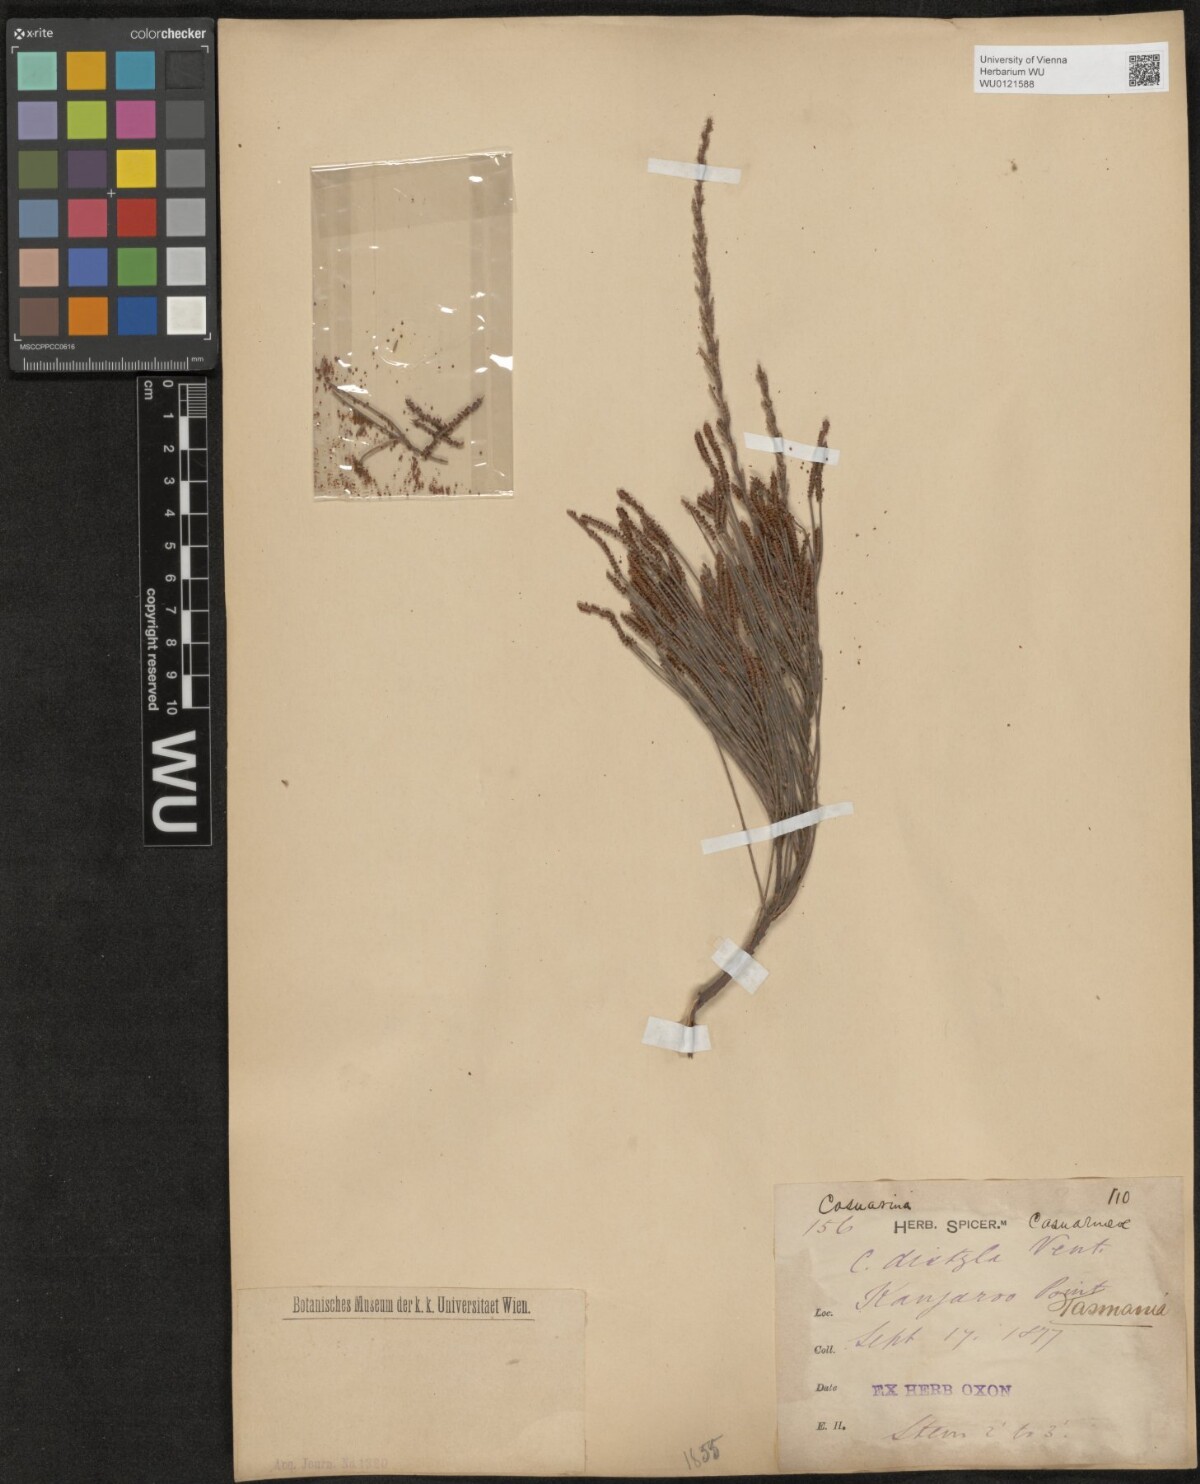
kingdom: Plantae
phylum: Tracheophyta
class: Magnoliopsida
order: Fagales
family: Casuarinaceae
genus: Allocasuarina
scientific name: Allocasuarina distyla
